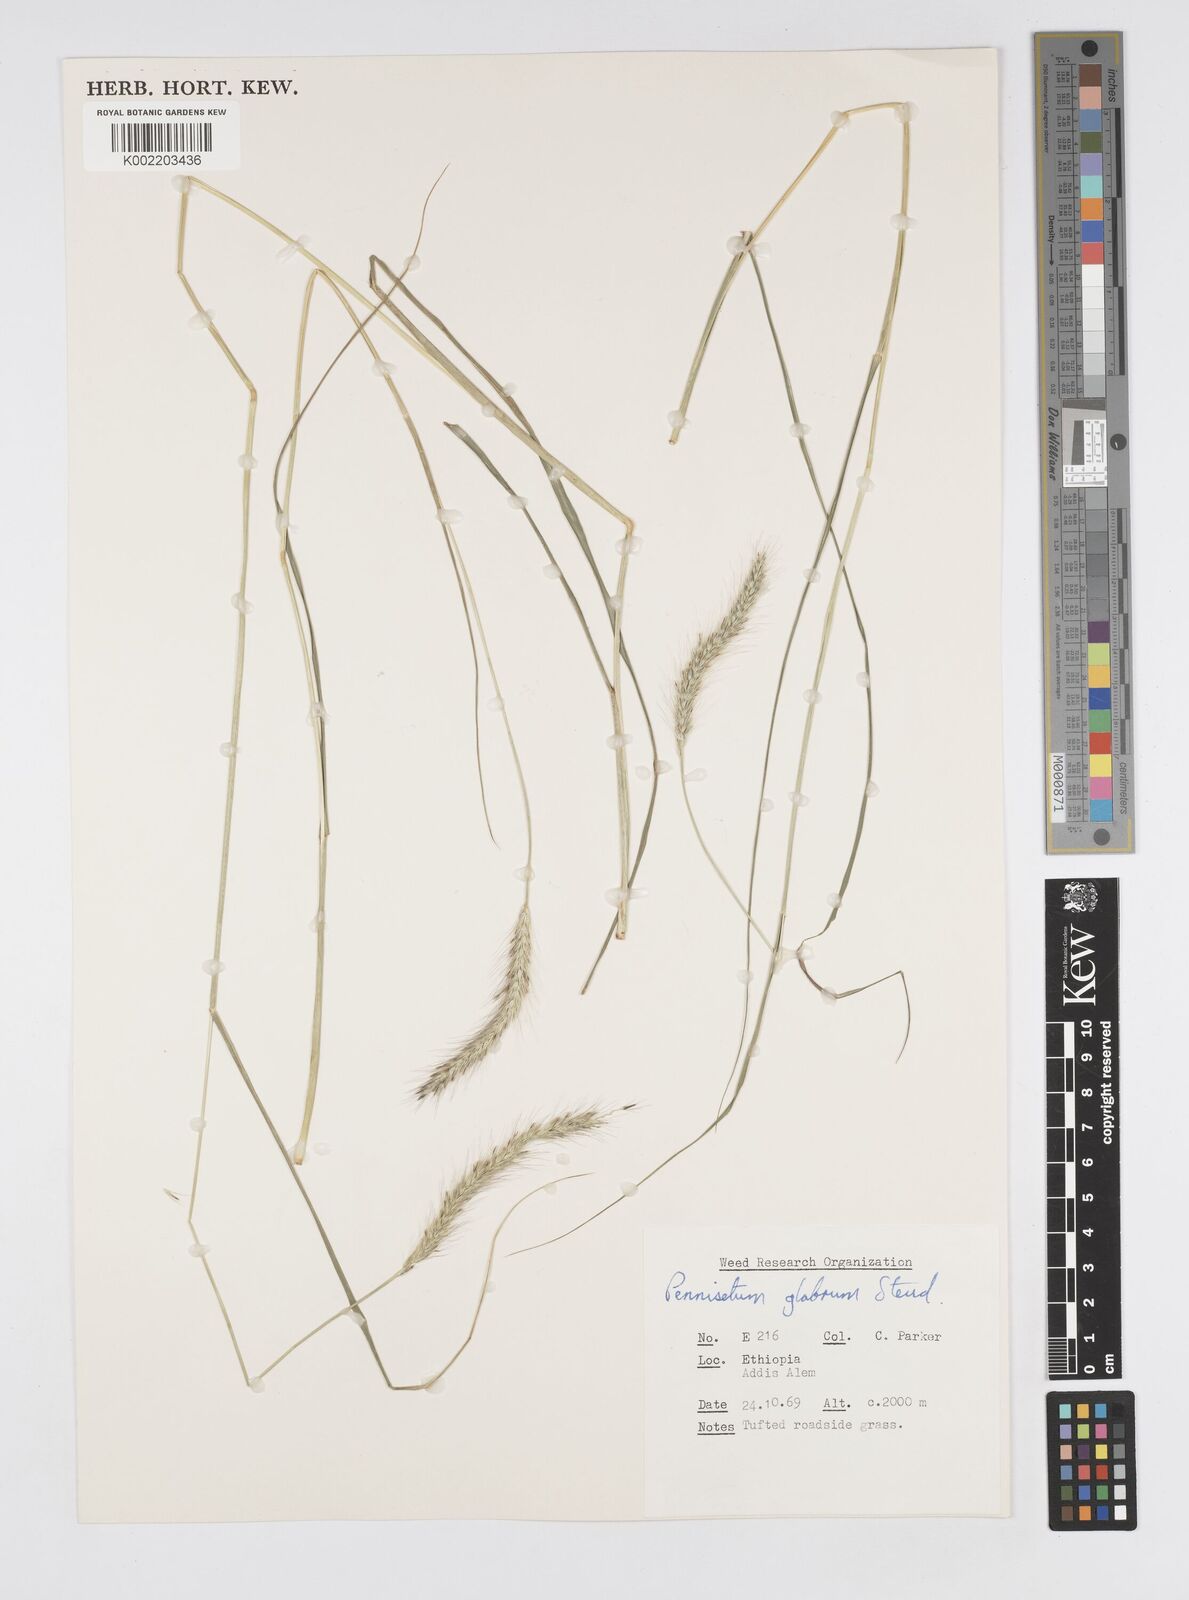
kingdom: Plantae
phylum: Tracheophyta
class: Liliopsida
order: Poales
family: Poaceae
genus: Cenchrus
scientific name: Cenchrus geniculatus
